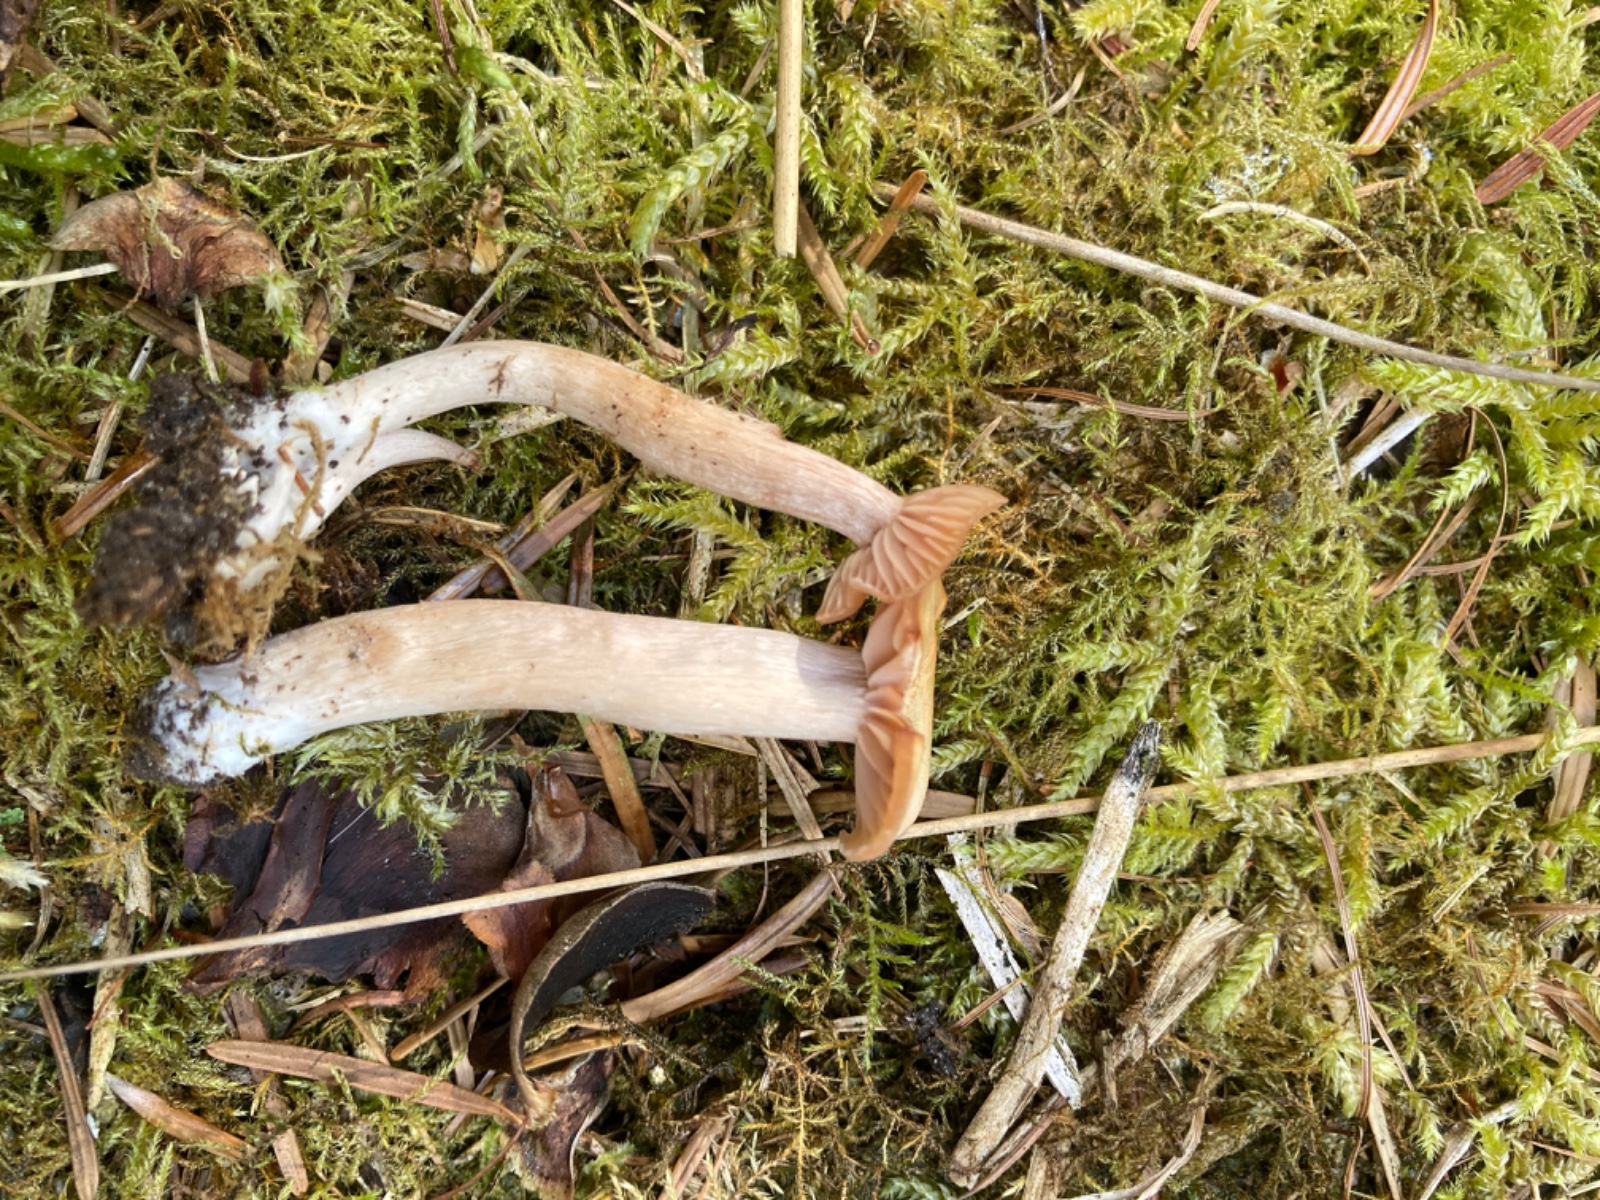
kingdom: Fungi
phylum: Basidiomycota
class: Agaricomycetes
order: Agaricales
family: Hydnangiaceae
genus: Laccaria
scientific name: Laccaria laccata
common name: rød ametysthat
